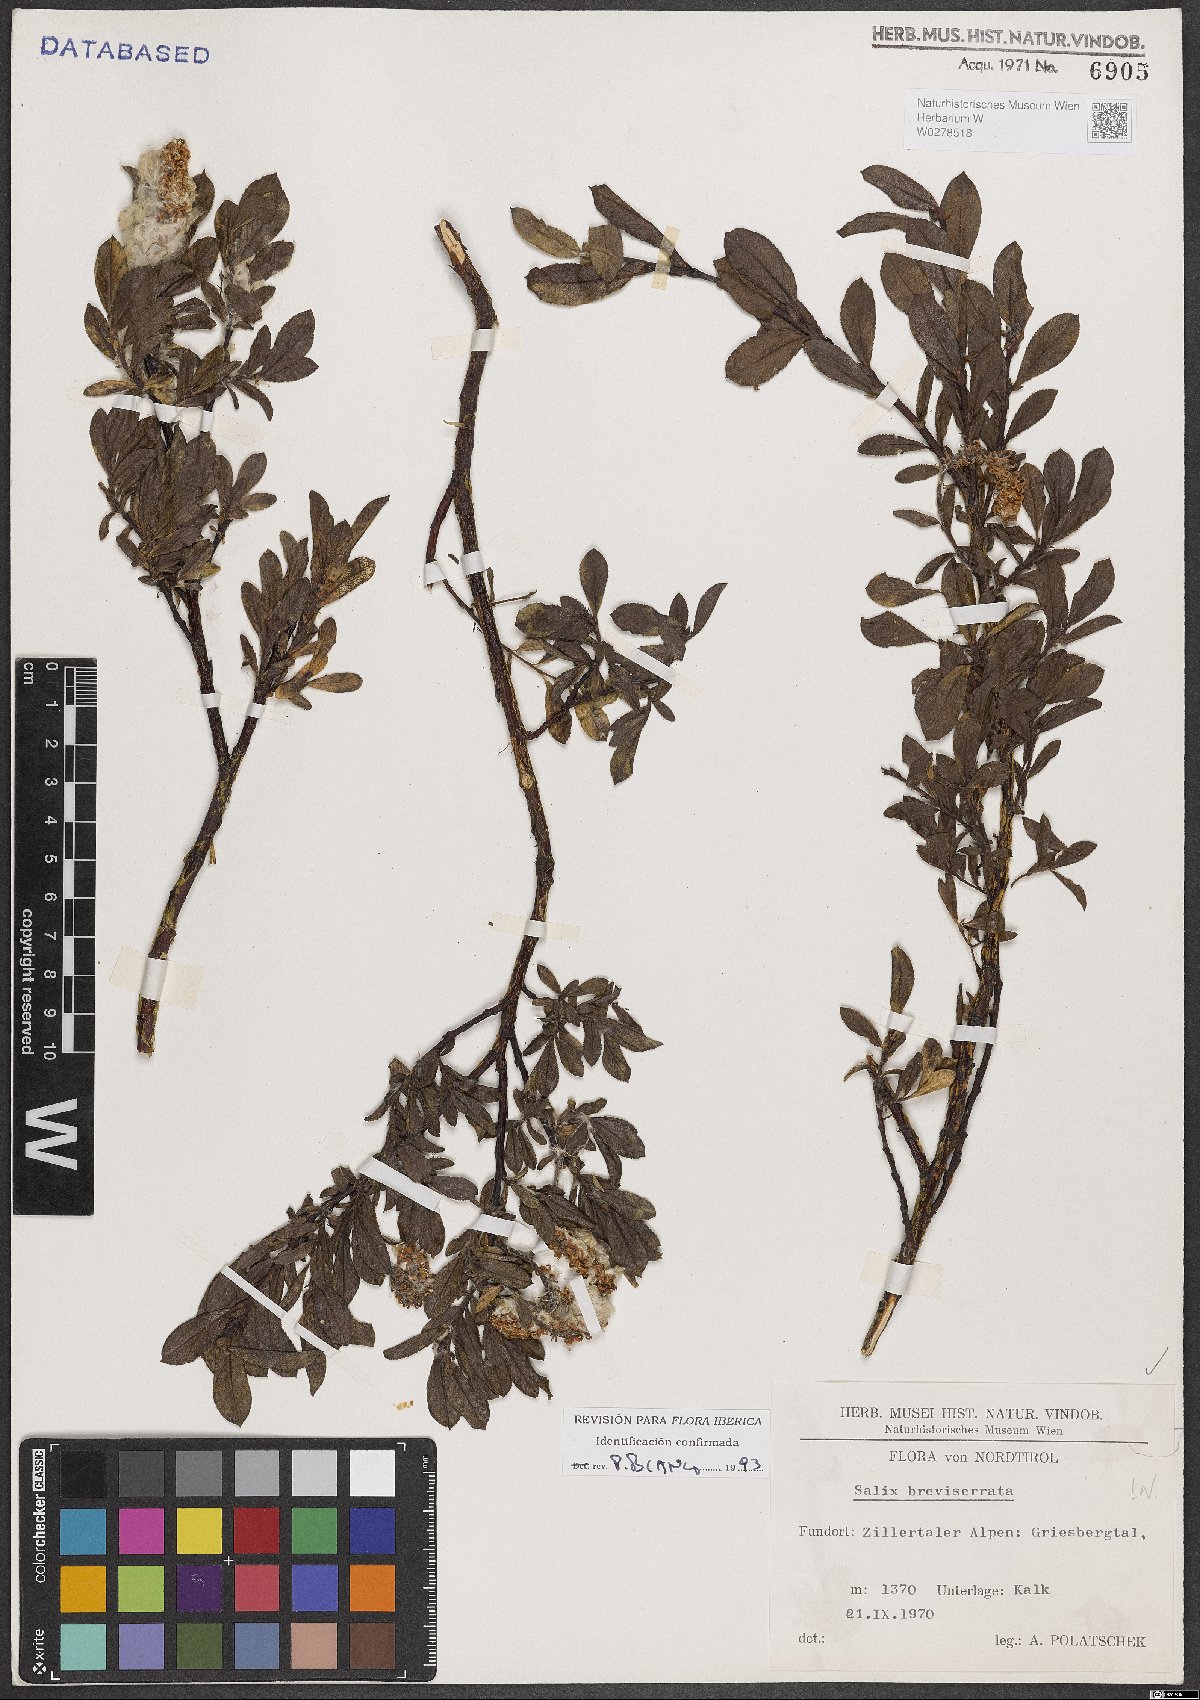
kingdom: Plantae
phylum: Tracheophyta
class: Magnoliopsida
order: Malpighiales
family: Salicaceae
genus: Salix
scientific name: Salix breviserrata
